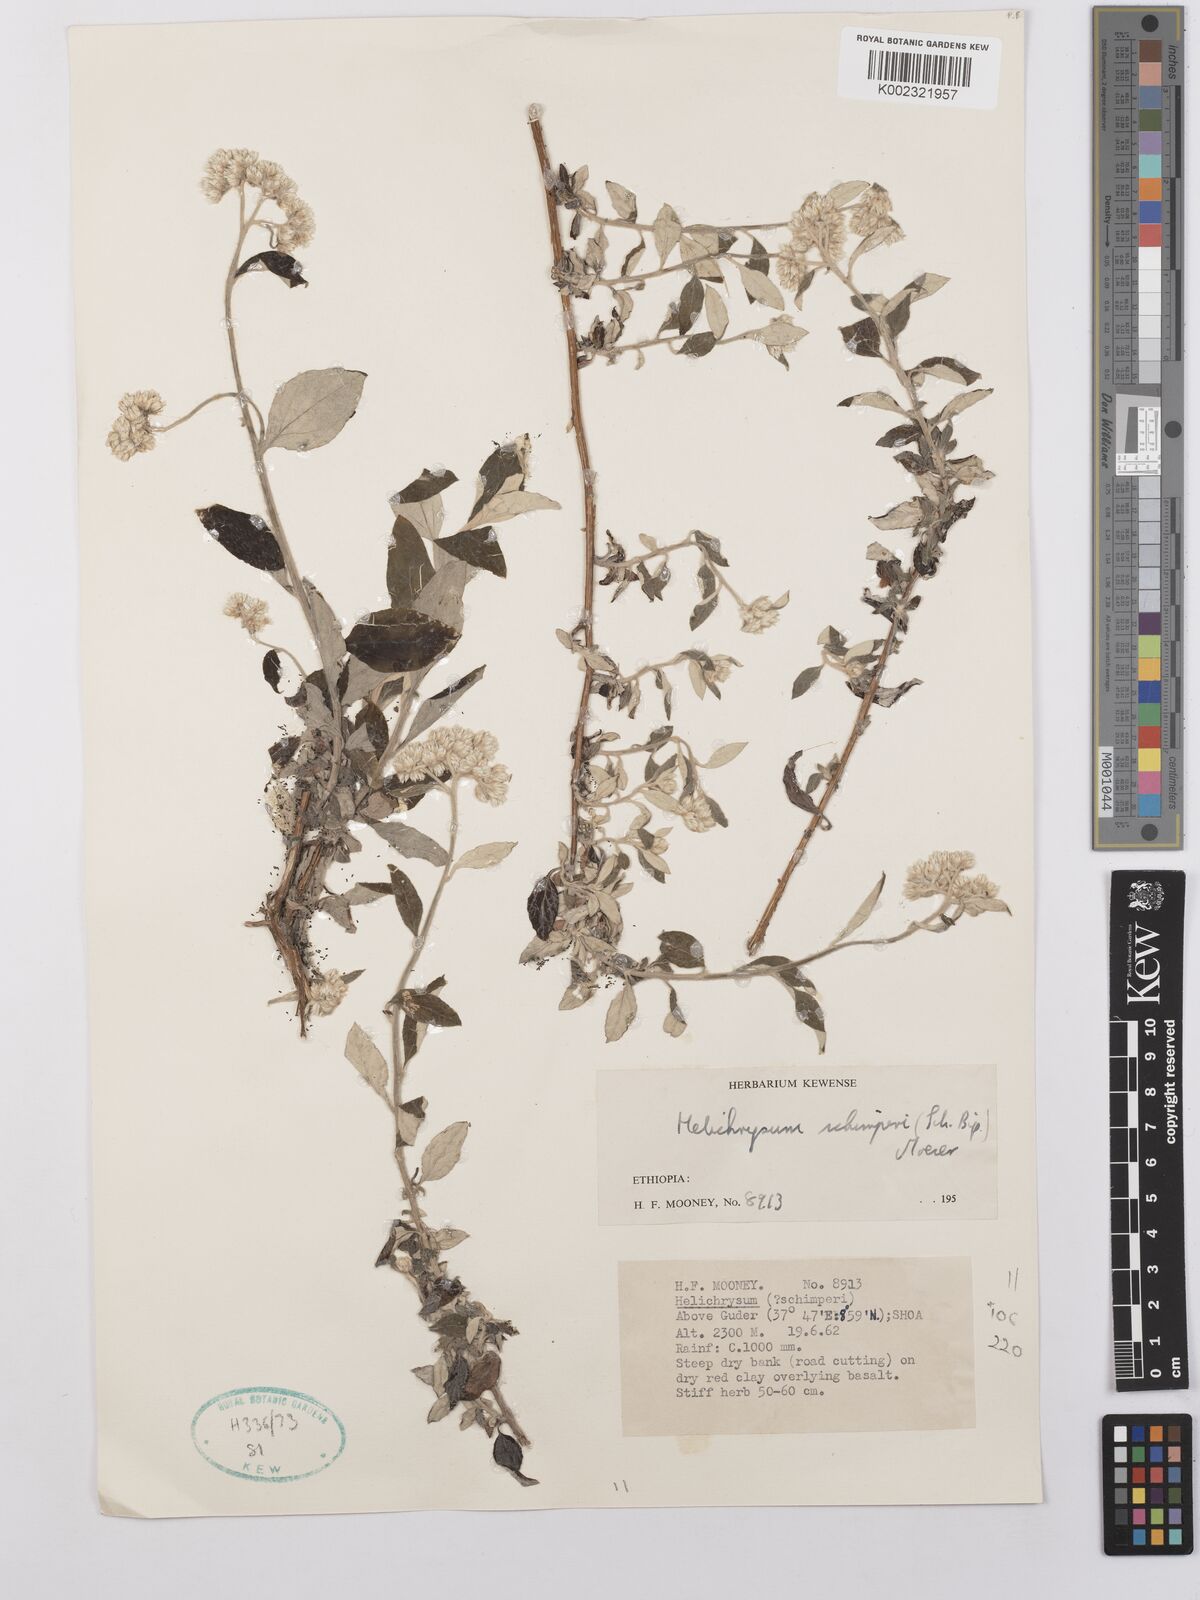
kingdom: Plantae
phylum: Tracheophyta
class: Magnoliopsida
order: Asterales
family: Asteraceae
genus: Helichrysum
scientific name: Helichrysum schimperi
